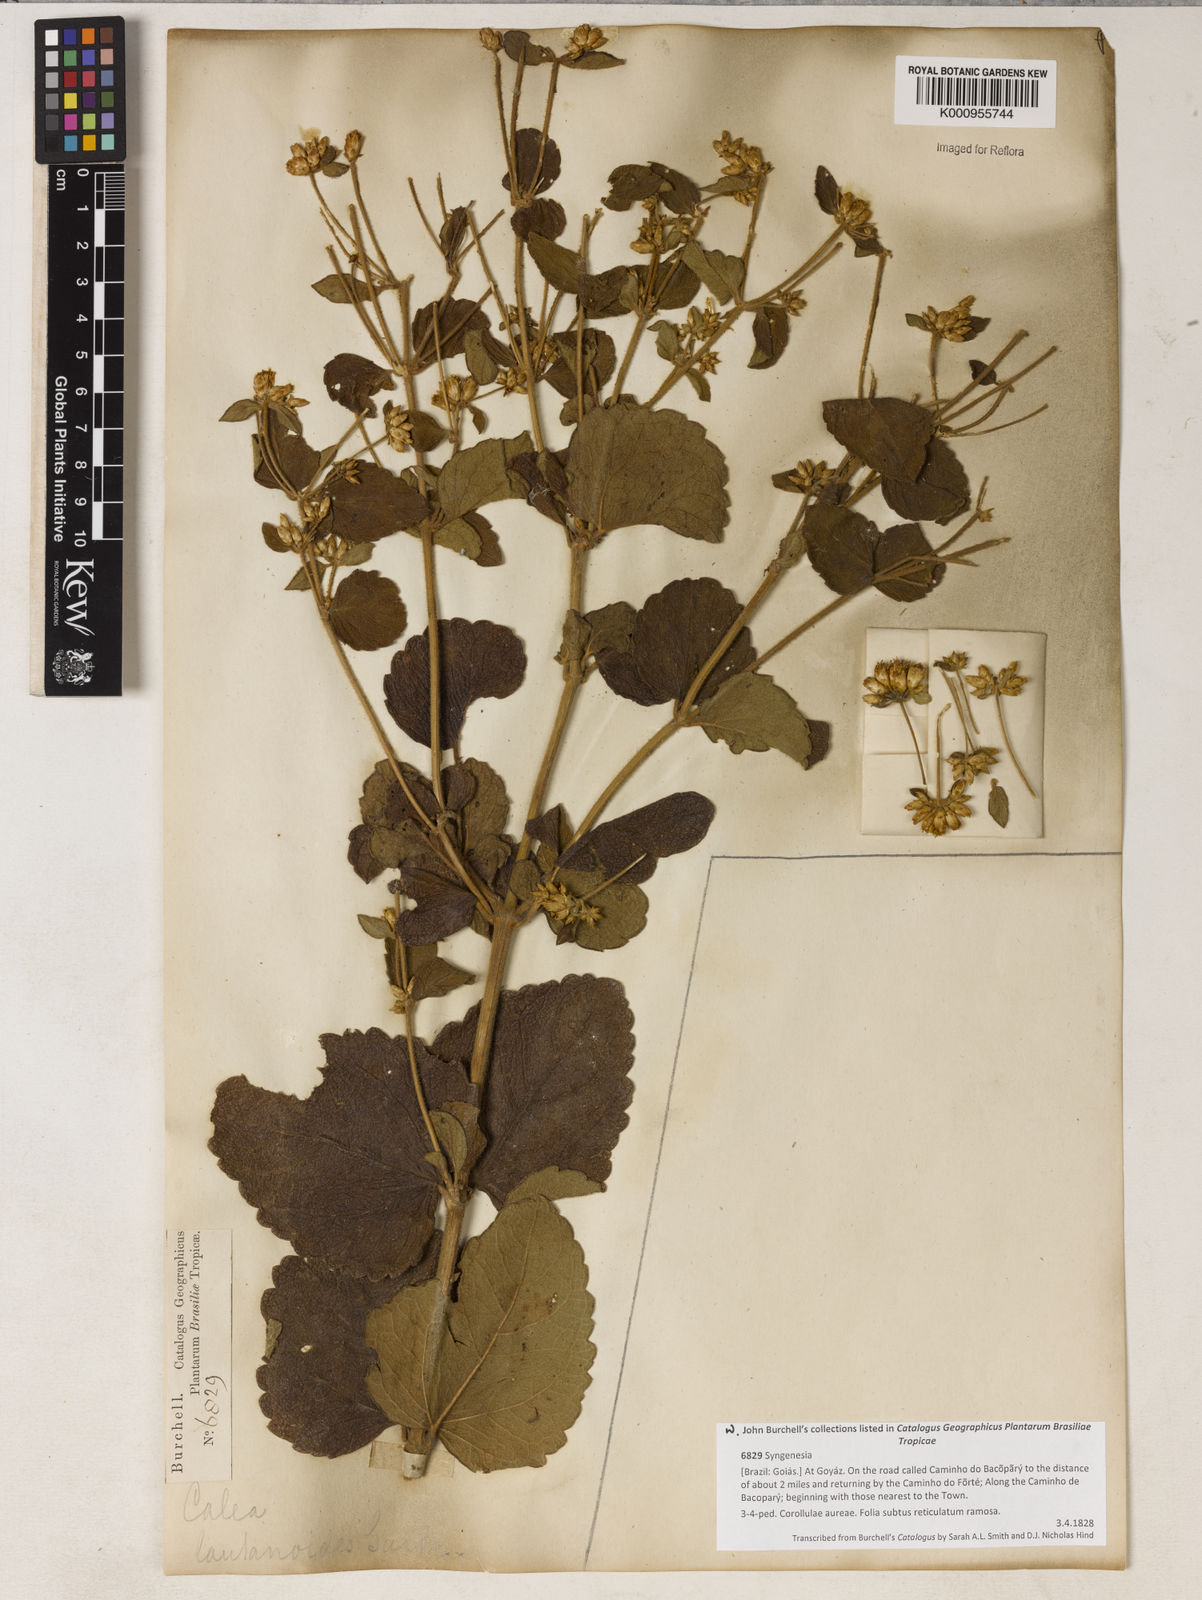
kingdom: Plantae
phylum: Tracheophyta
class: Magnoliopsida
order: Asterales
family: Asteraceae
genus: Calea
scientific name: Calea lantanoides
